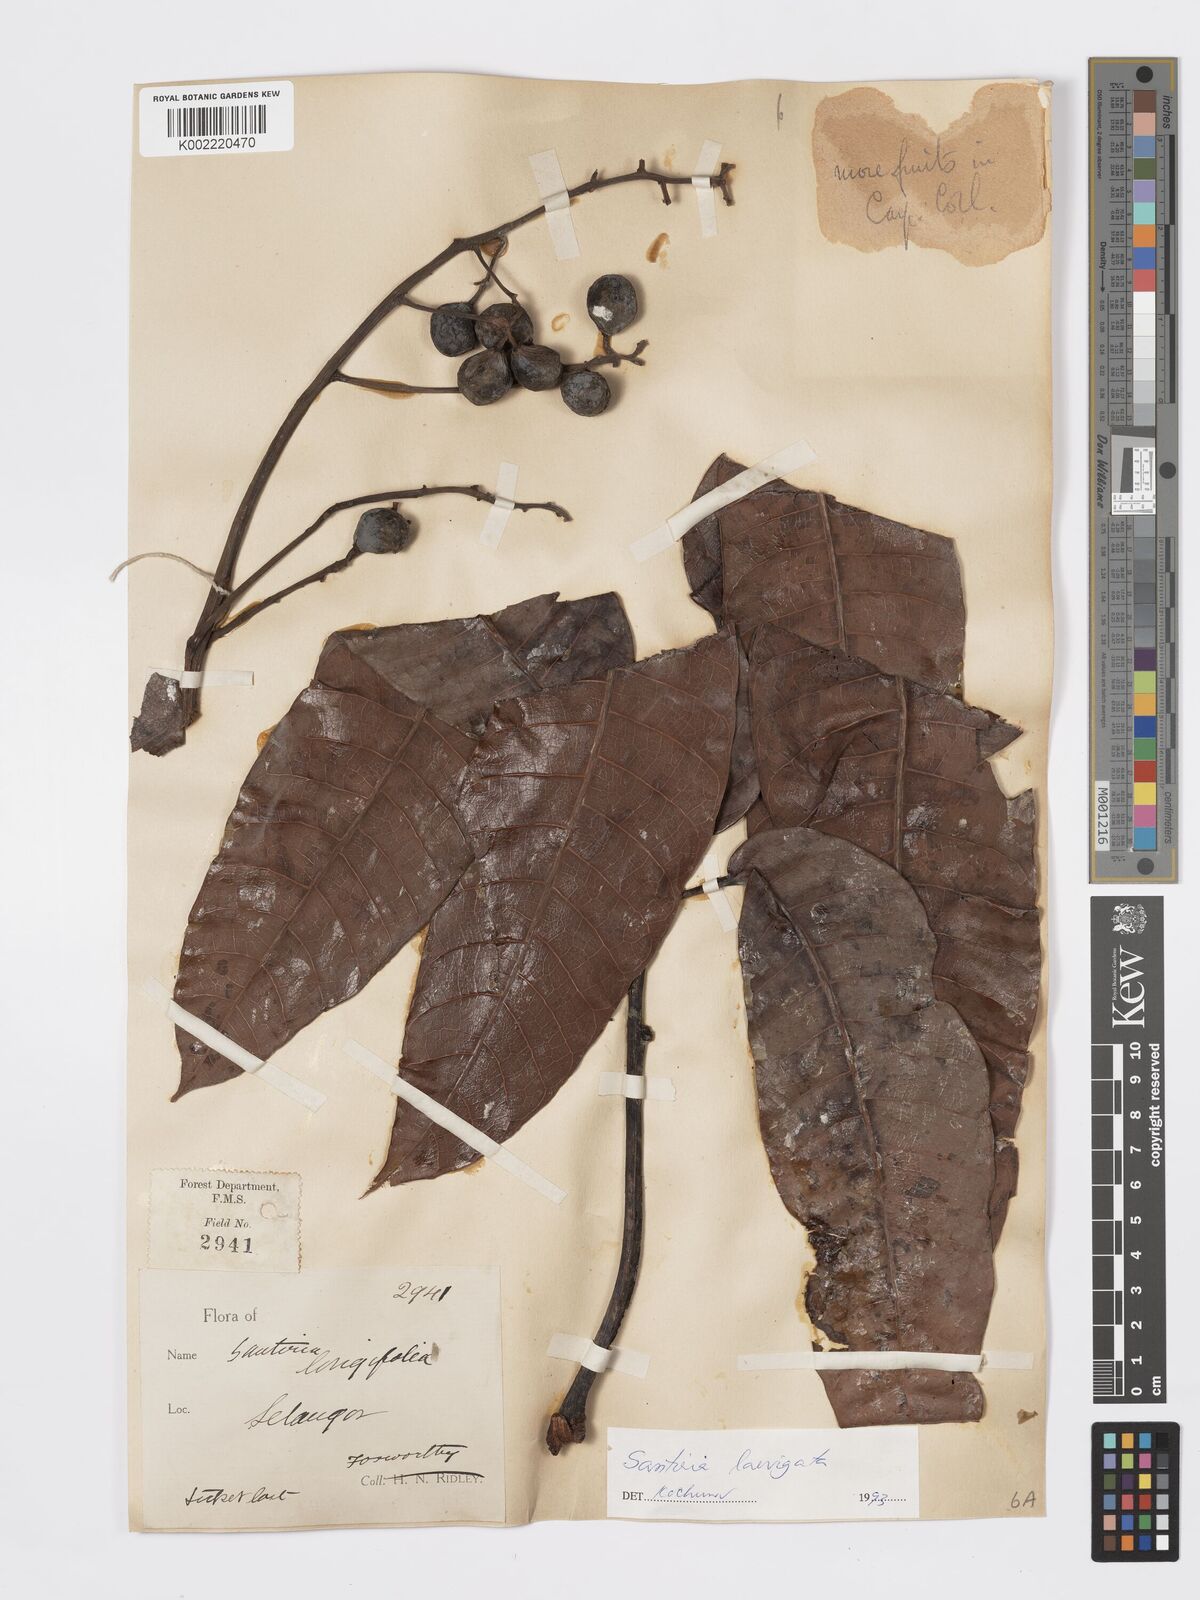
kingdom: Plantae
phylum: Tracheophyta
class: Magnoliopsida
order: Sapindales
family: Burseraceae
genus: Santiria
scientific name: Santiria laevigata
